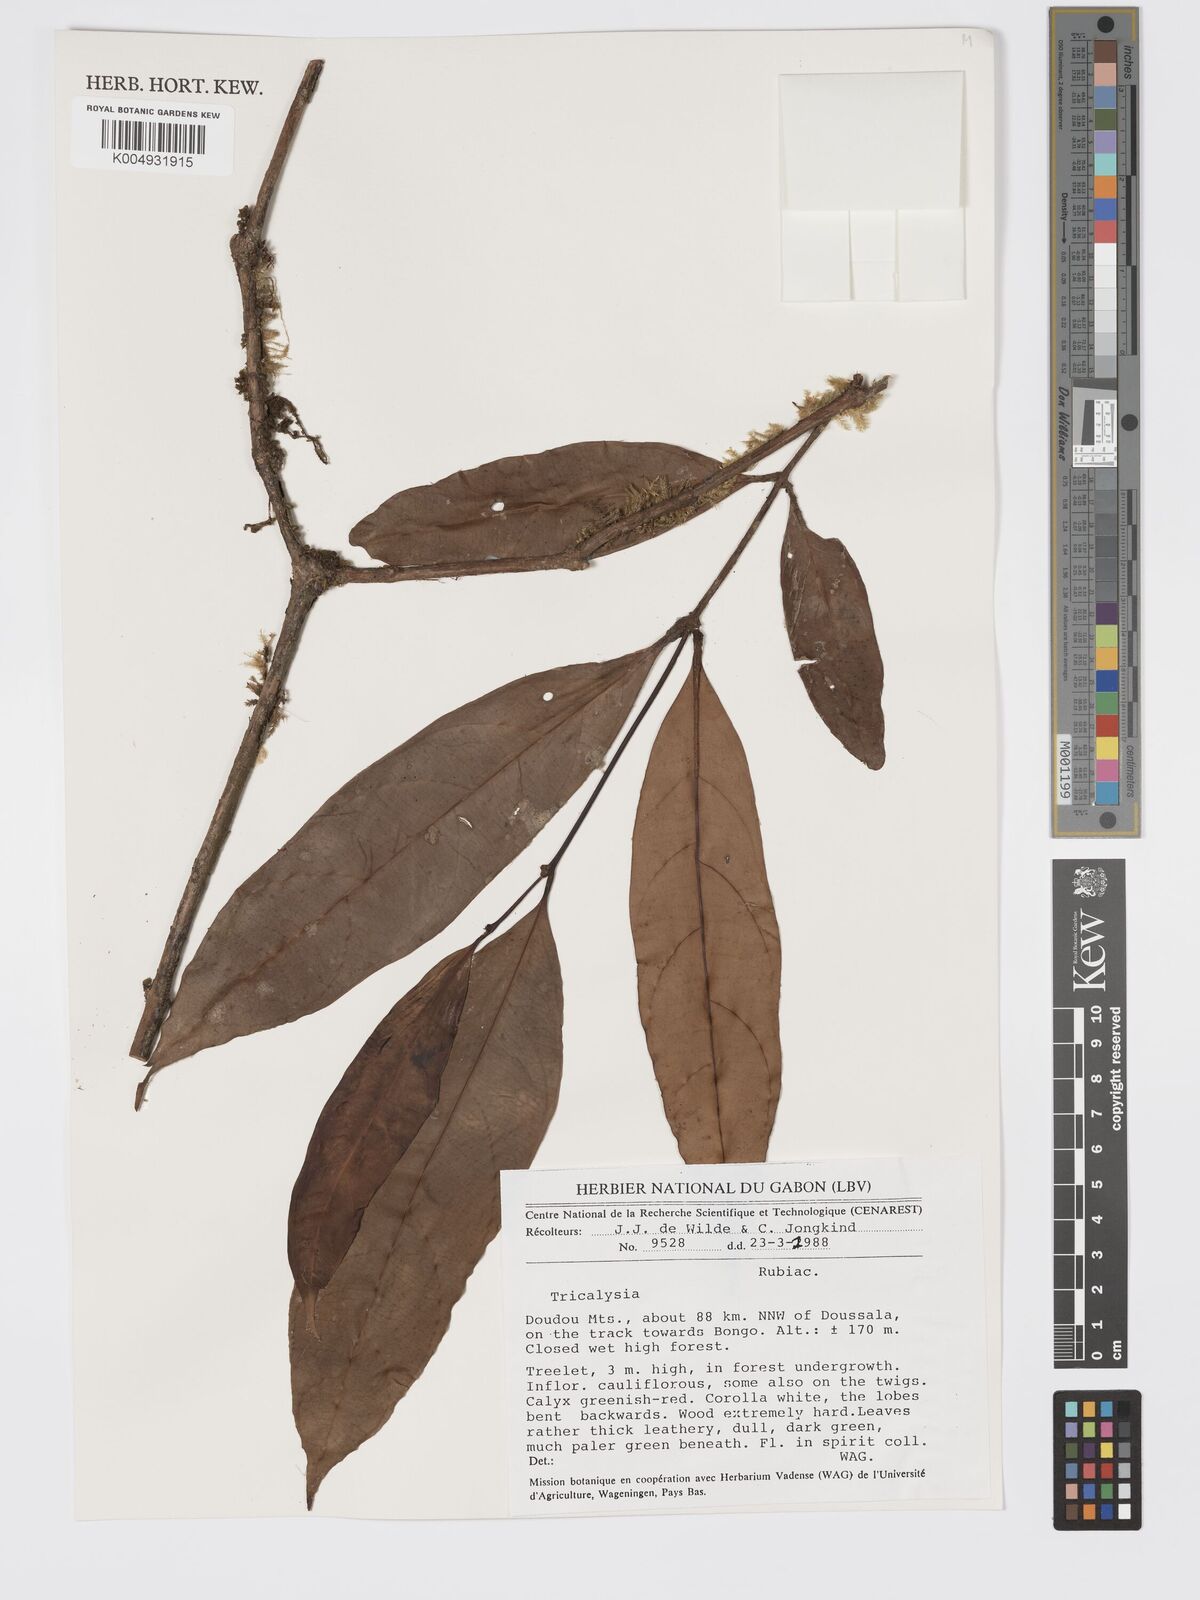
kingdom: Plantae
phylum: Tracheophyta
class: Magnoliopsida
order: Gentianales
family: Rubiaceae
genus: Tricalysia
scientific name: Tricalysia
